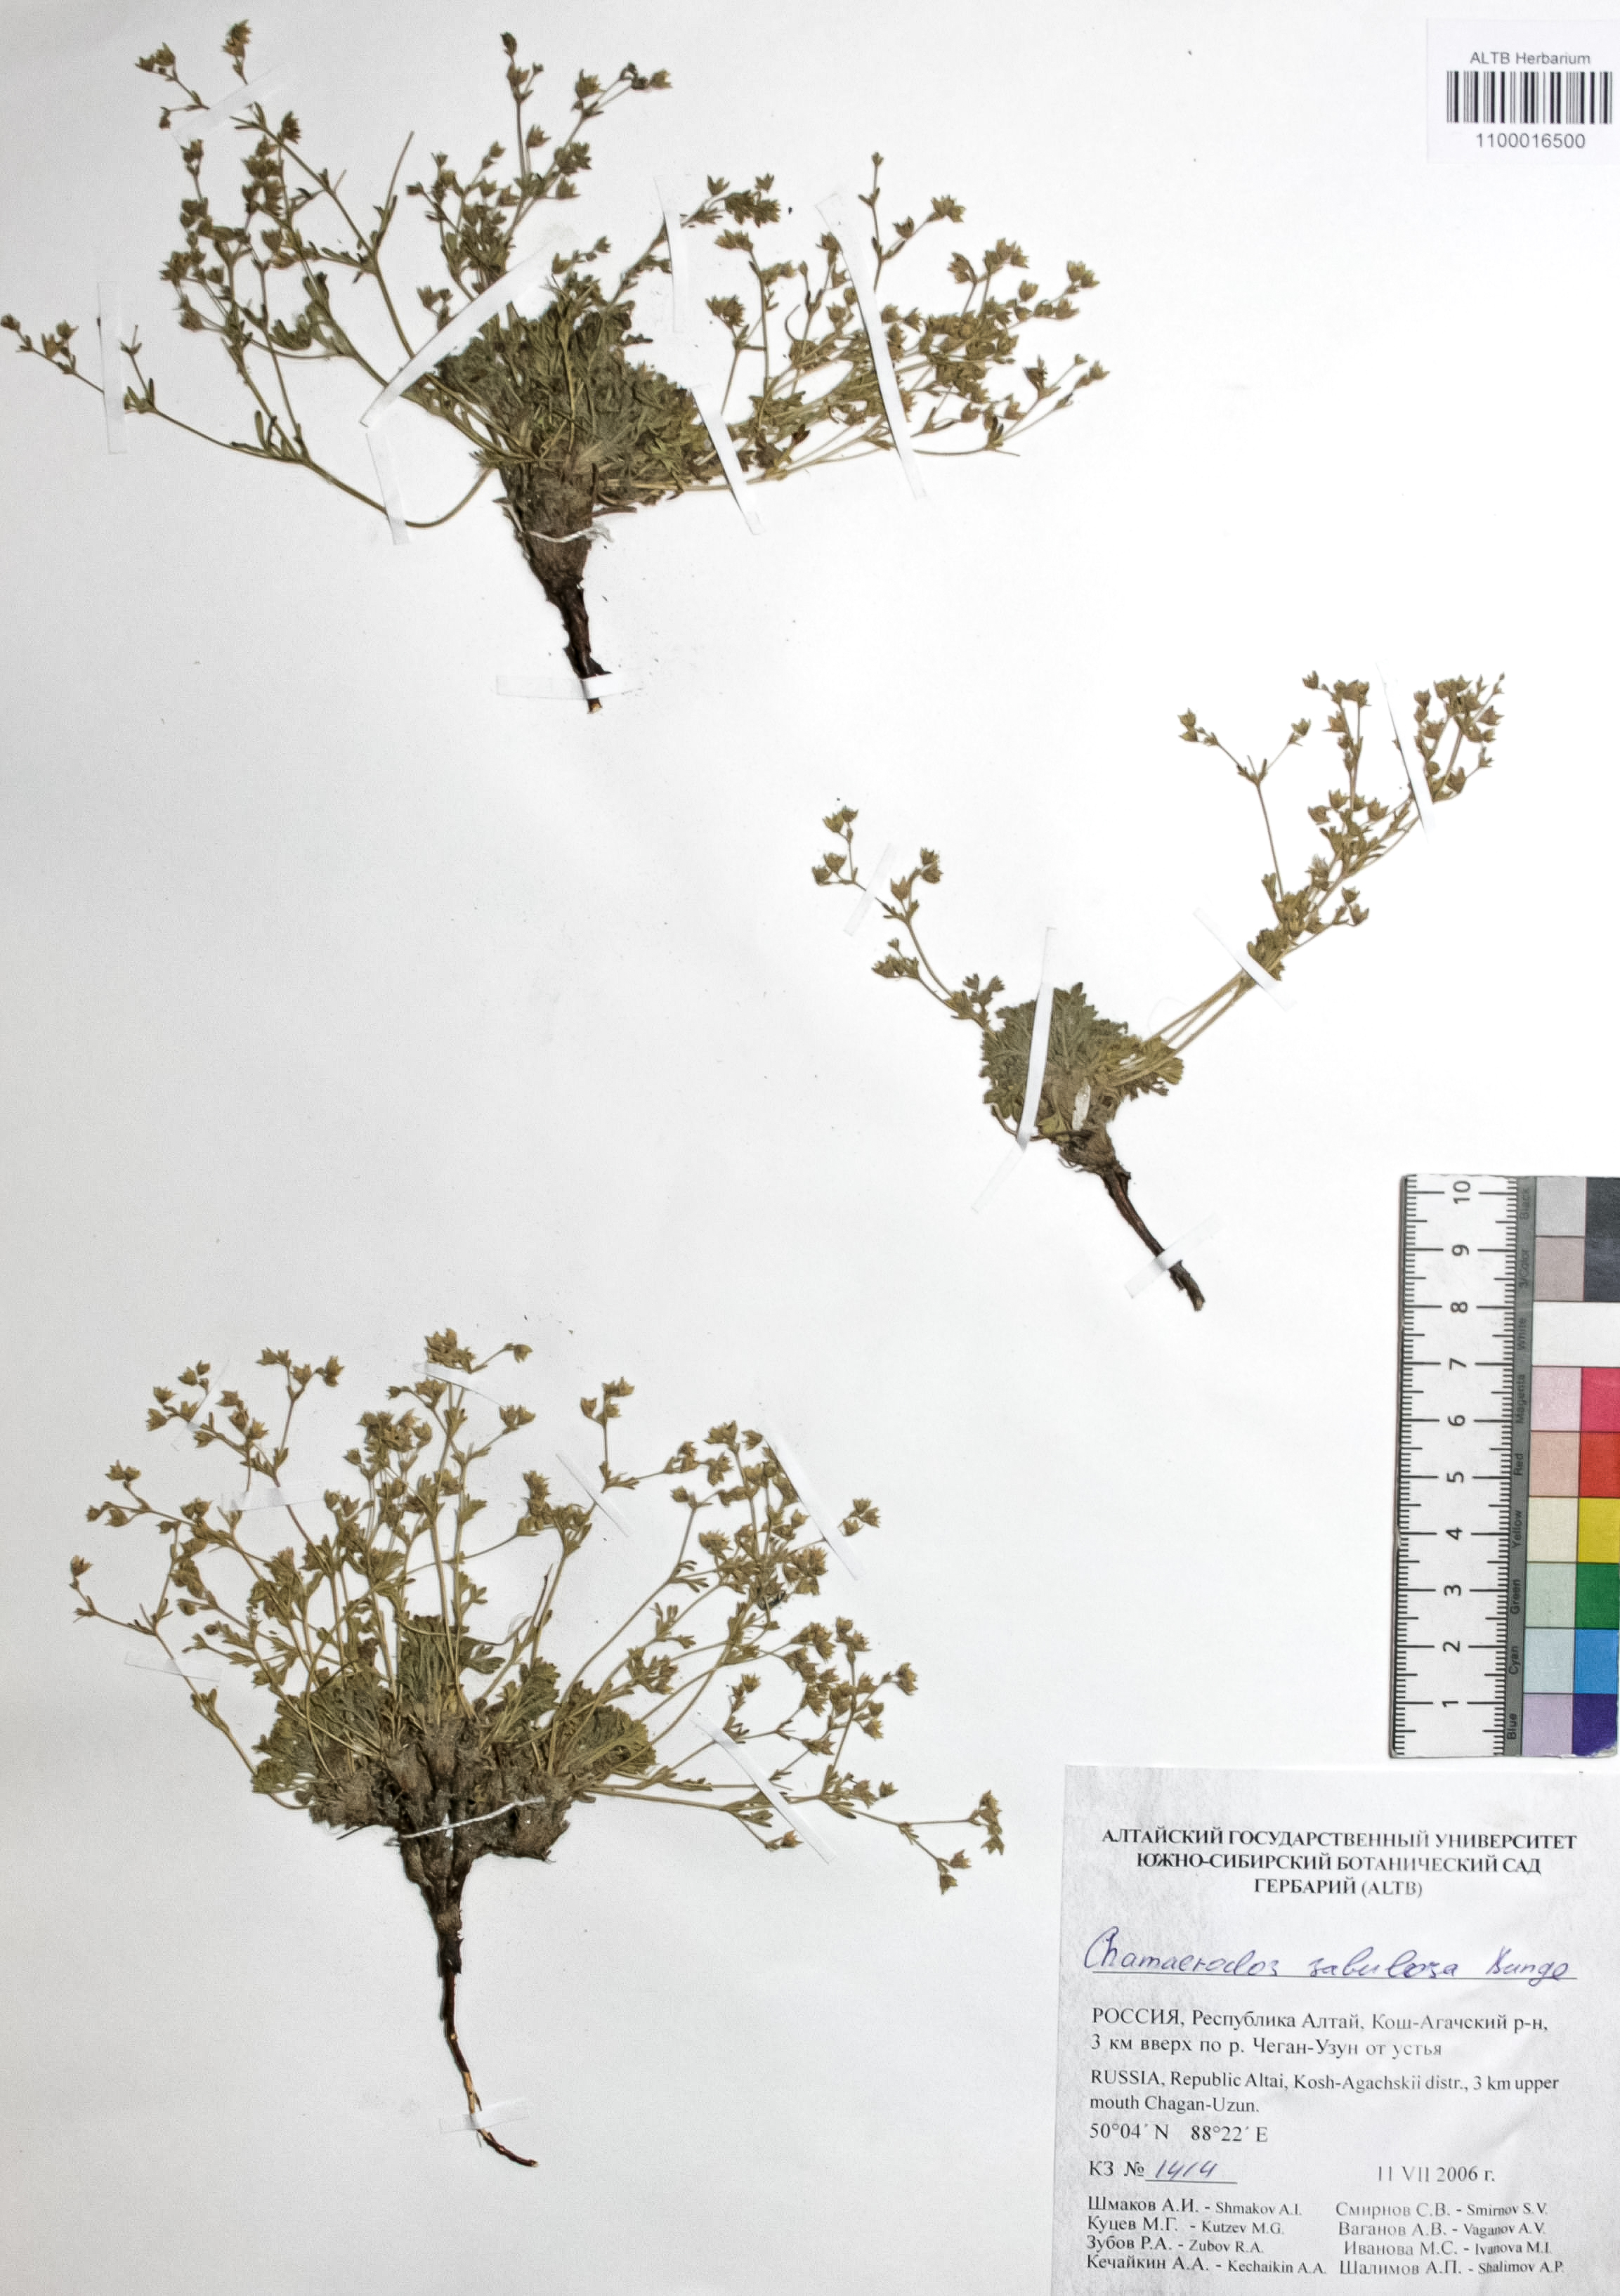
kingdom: Plantae
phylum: Tracheophyta
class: Magnoliopsida
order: Rosales
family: Rosaceae
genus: Chamaerhodos
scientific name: Chamaerhodos sabulosa
